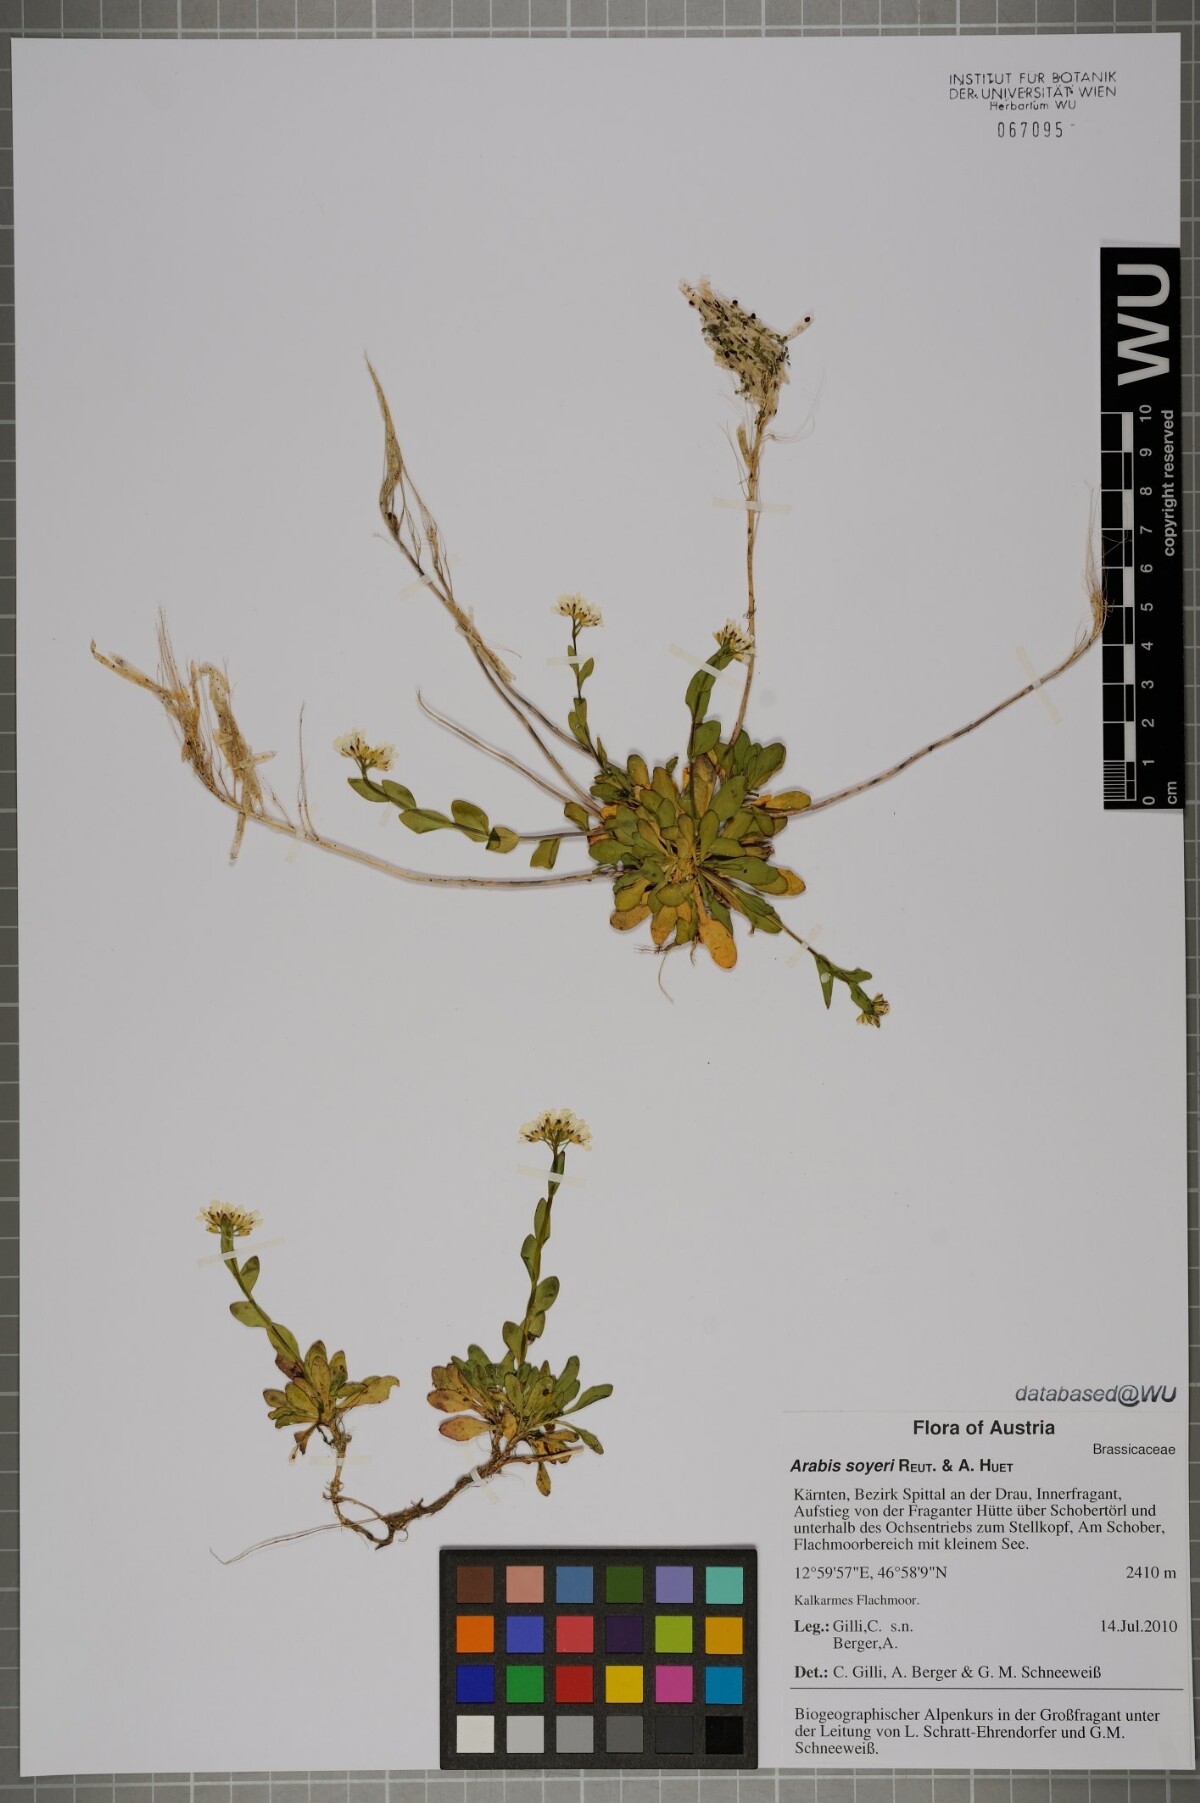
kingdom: Plantae
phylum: Tracheophyta
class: Magnoliopsida
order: Brassicales
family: Brassicaceae
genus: Arabis
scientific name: Arabis soyeri
